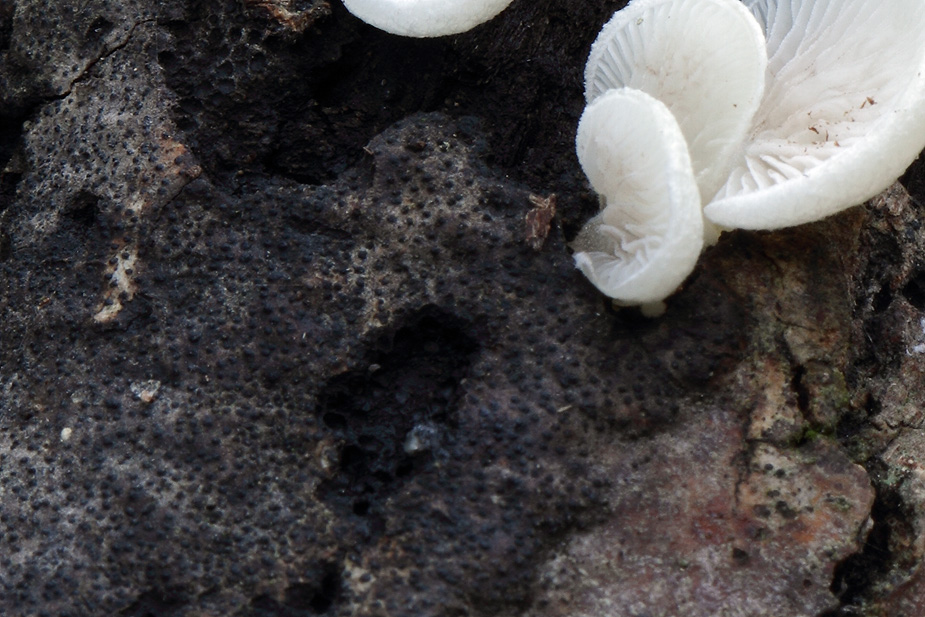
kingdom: Fungi
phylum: Ascomycota
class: Sordariomycetes
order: Diaporthales
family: Valsaceae
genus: Cytospora
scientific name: Cytospora populina
